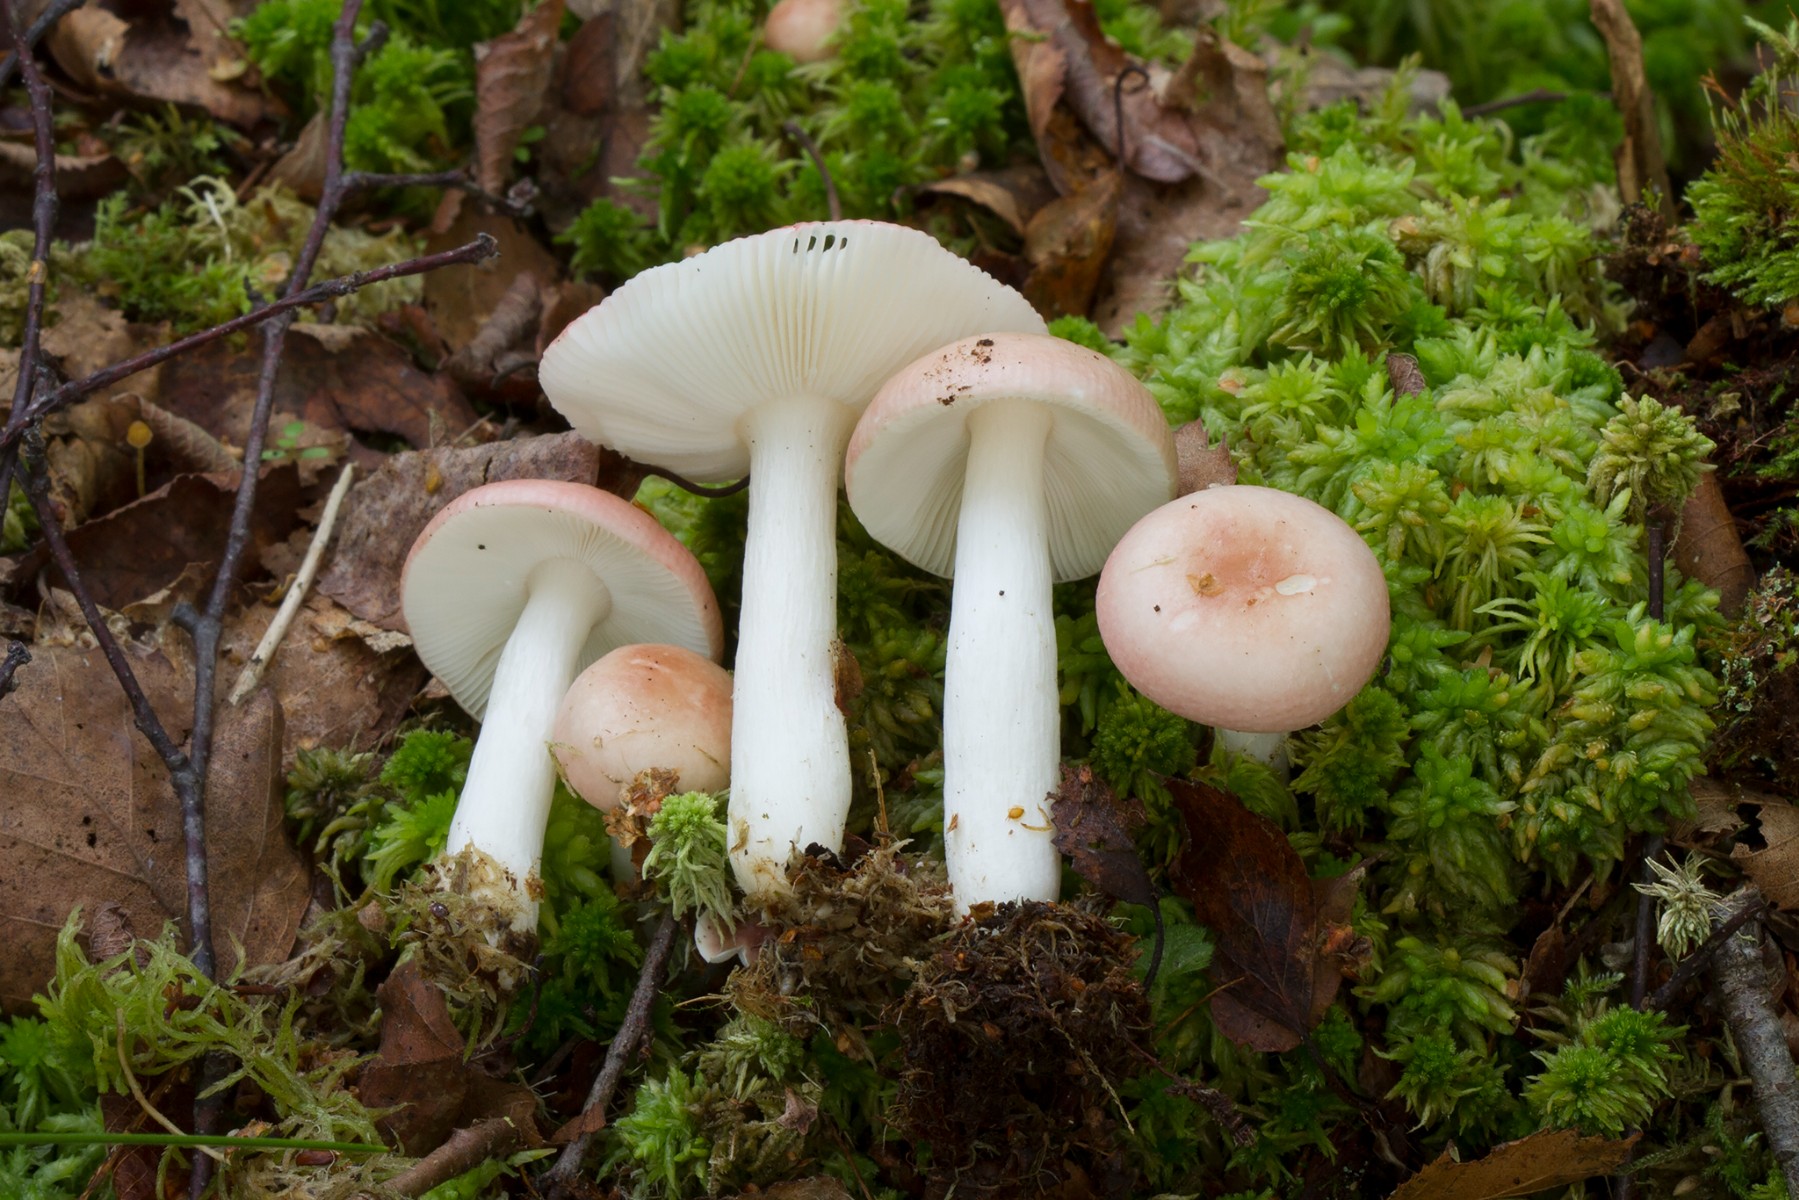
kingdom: Fungi
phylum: Basidiomycota
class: Agaricomycetes
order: Russulales
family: Russulaceae
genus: Russula
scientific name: Russula betularum
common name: bleg gift-skørhat
